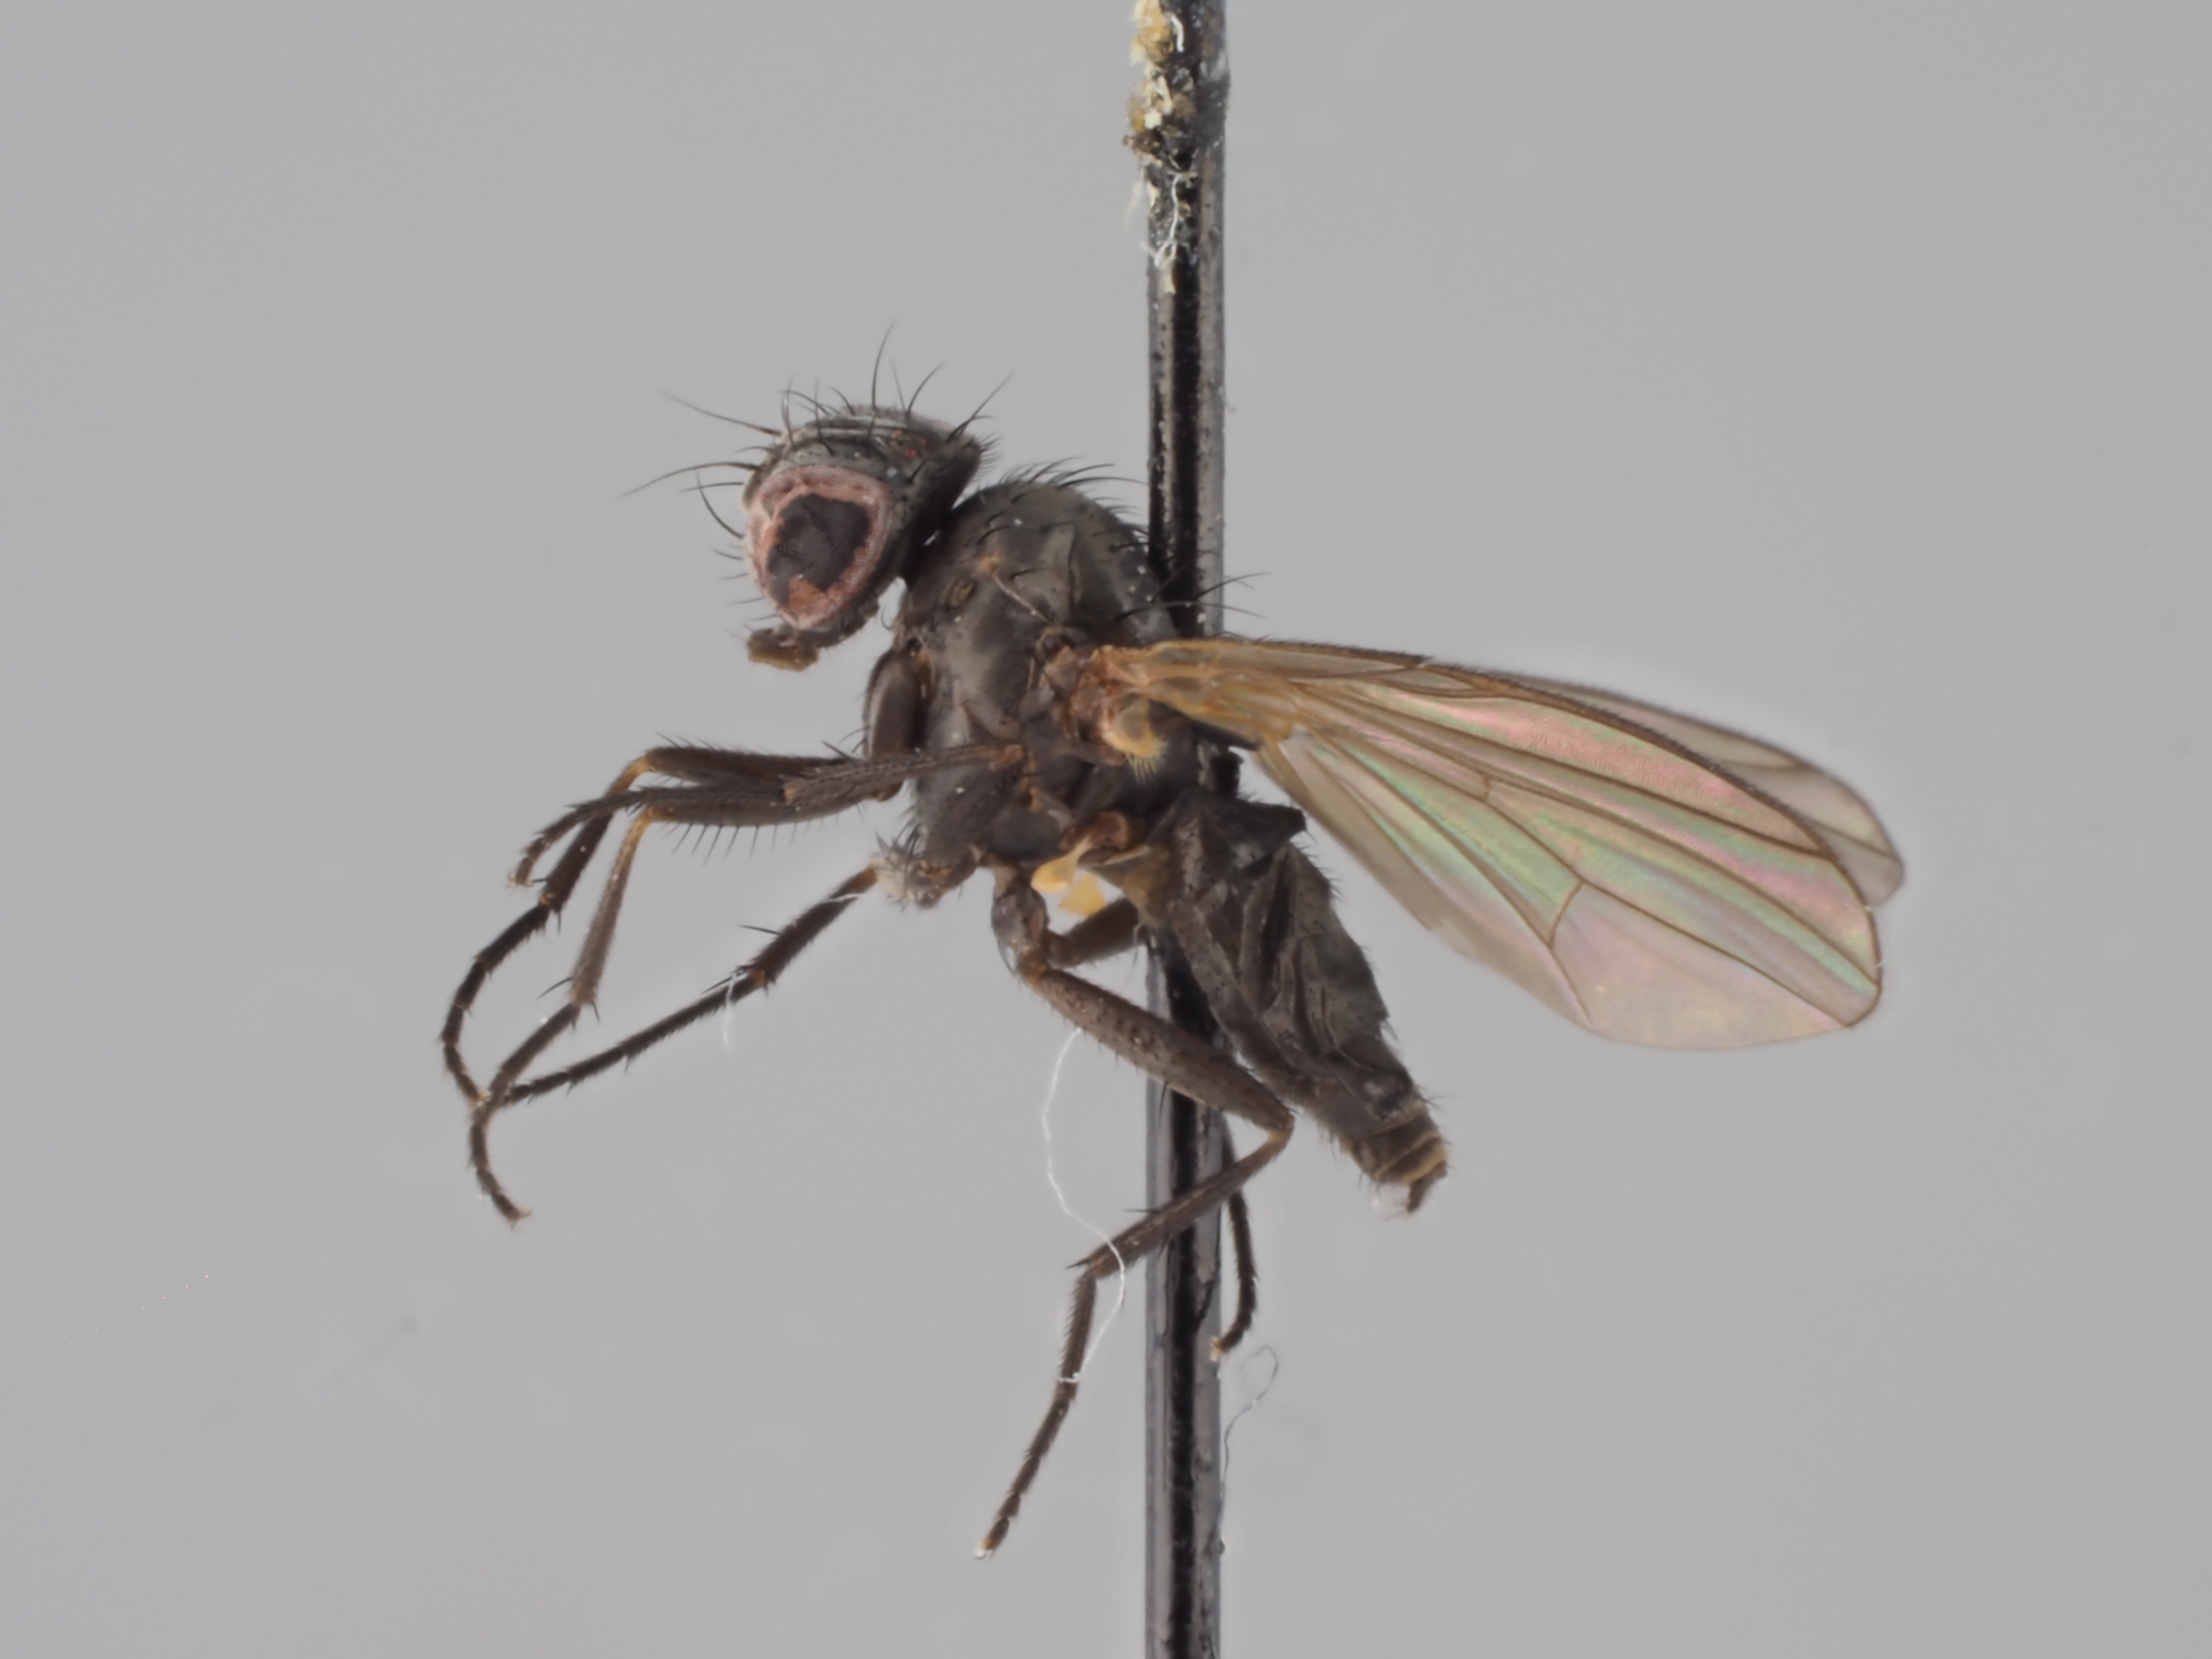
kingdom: Animalia
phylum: Arthropoda
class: Insecta
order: Diptera
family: Fanniidae
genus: Fannia
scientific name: Fannia parva
